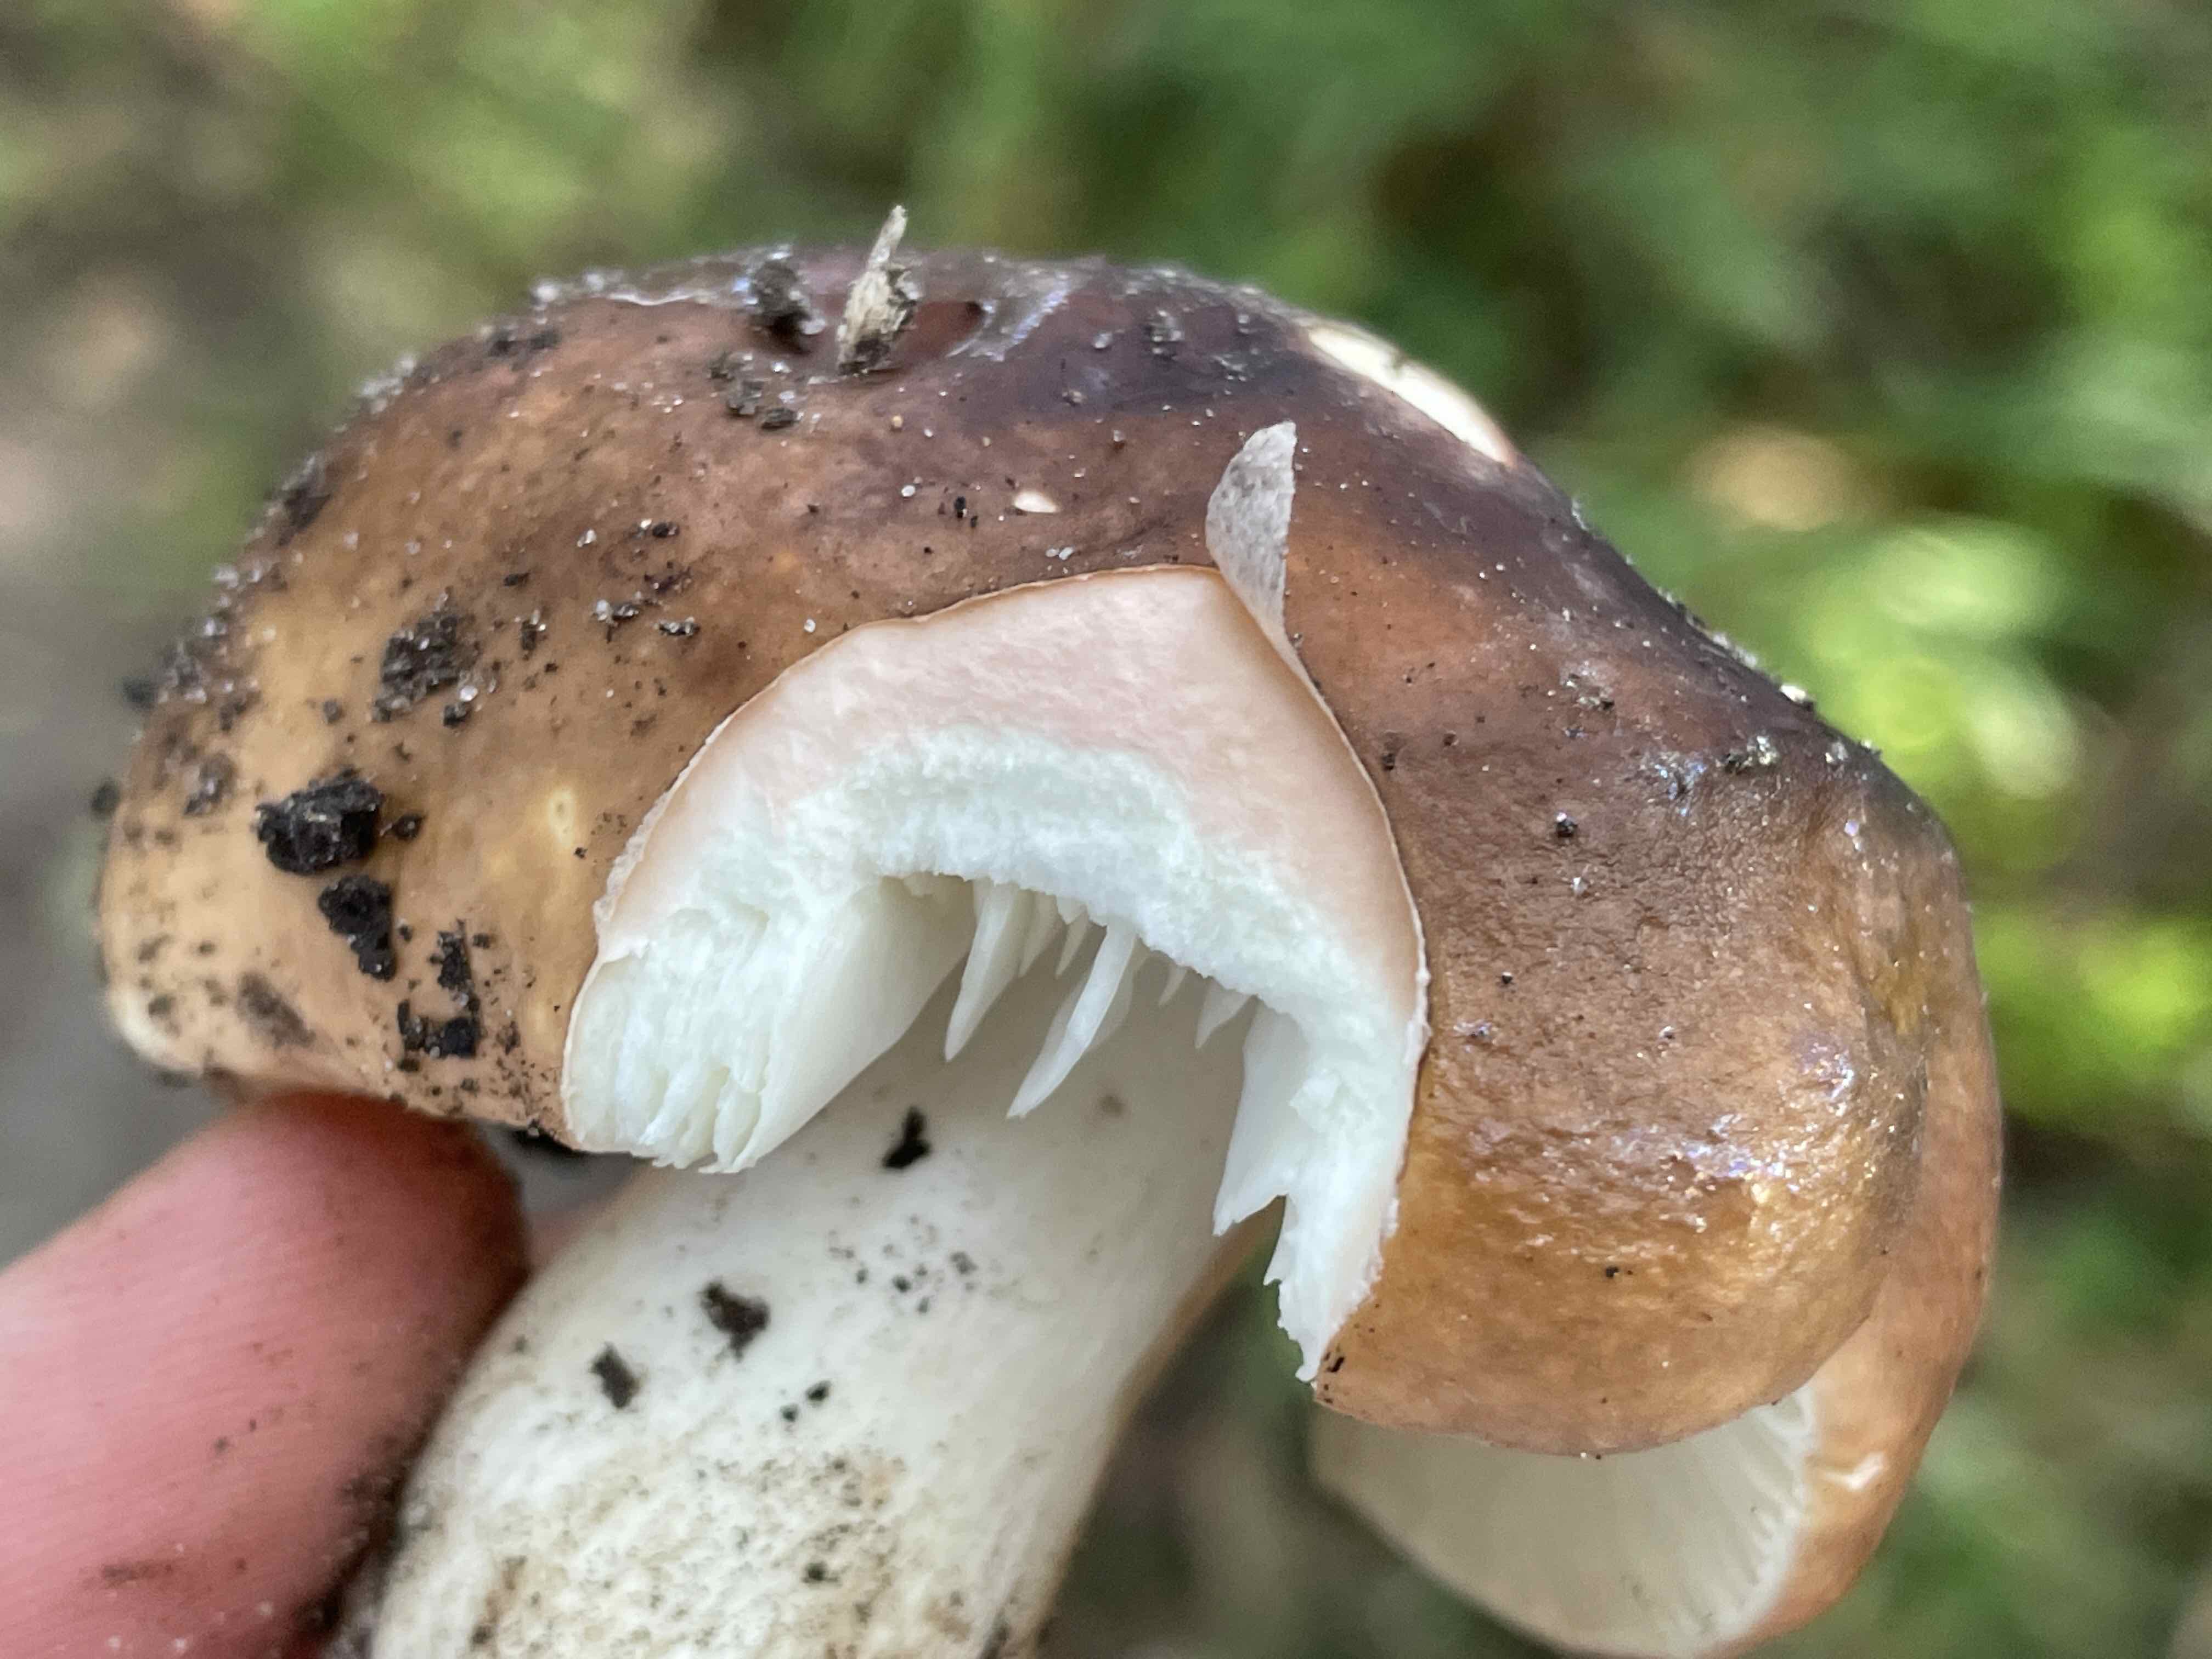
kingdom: Fungi
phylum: Basidiomycota
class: Agaricomycetes
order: Russulales
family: Russulaceae
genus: Russula
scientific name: Russula graveolens
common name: bugtet skørhat
